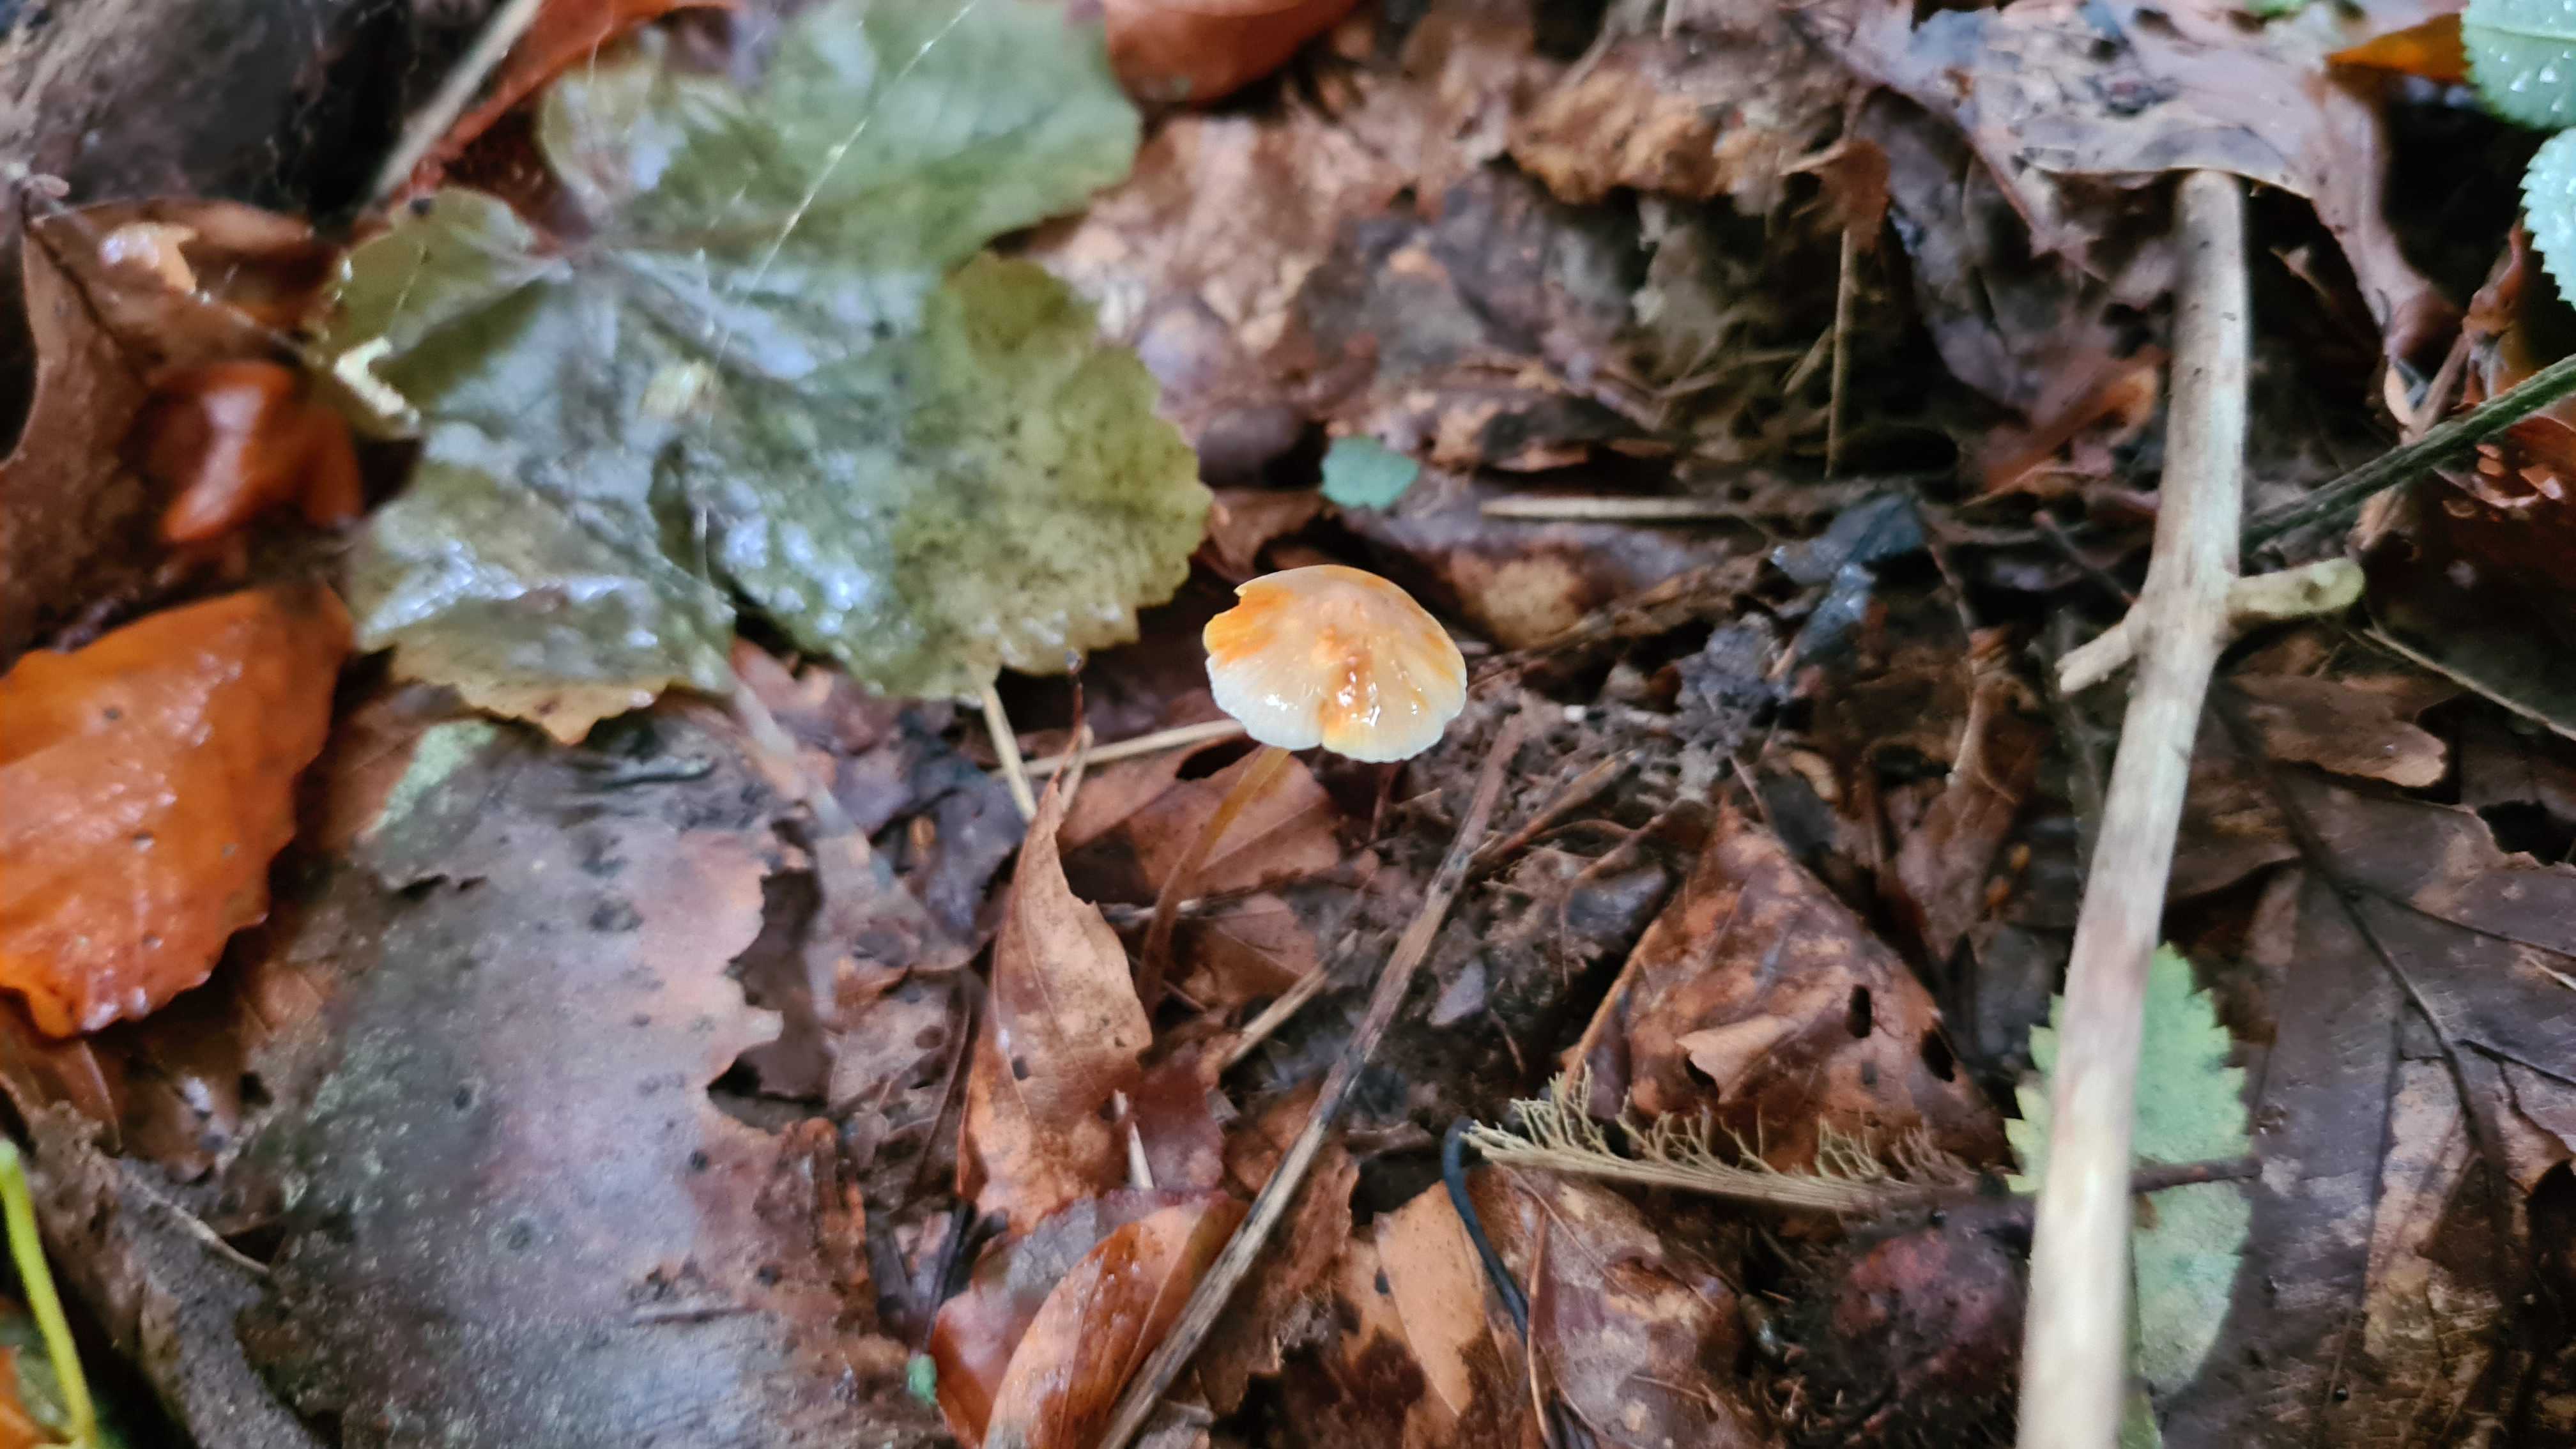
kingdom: Fungi
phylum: Basidiomycota
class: Agaricomycetes
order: Agaricales
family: Mycenaceae
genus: Mycena
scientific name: Mycena crocata
